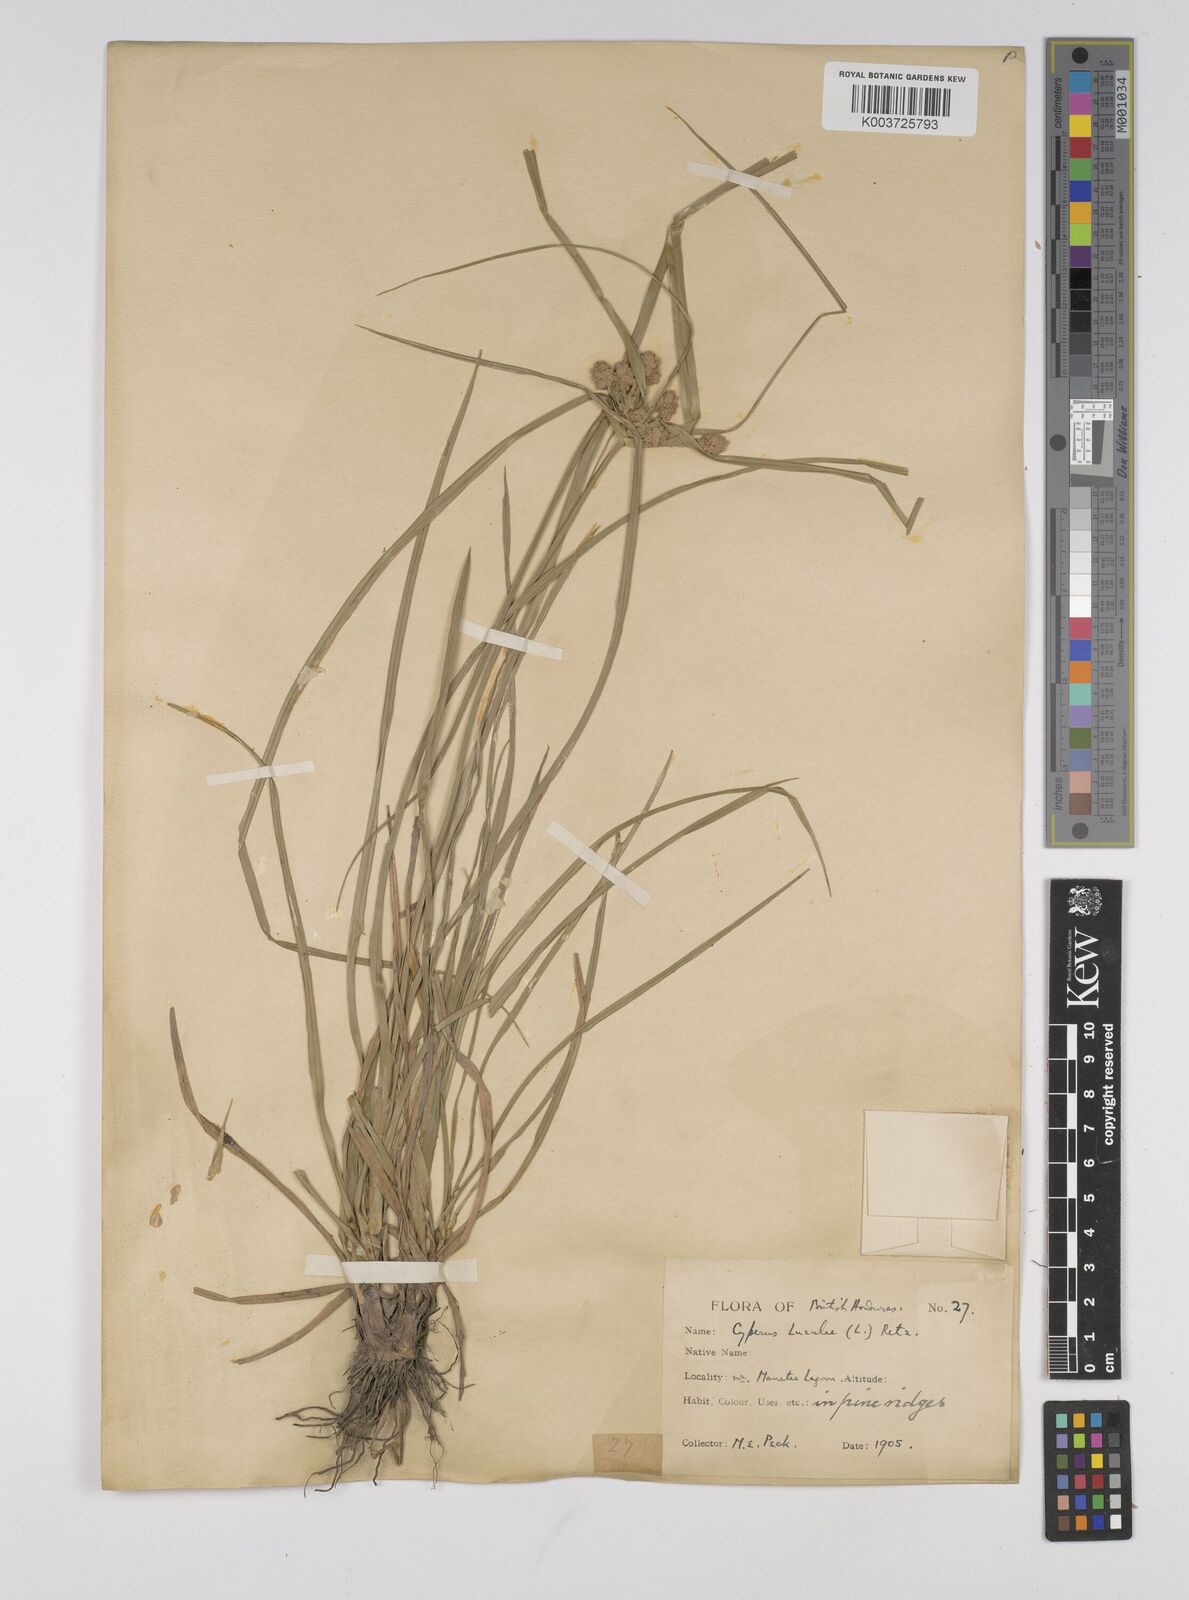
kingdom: Plantae
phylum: Tracheophyta
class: Liliopsida
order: Poales
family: Cyperaceae
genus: Cyperus
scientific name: Cyperus luzulae
